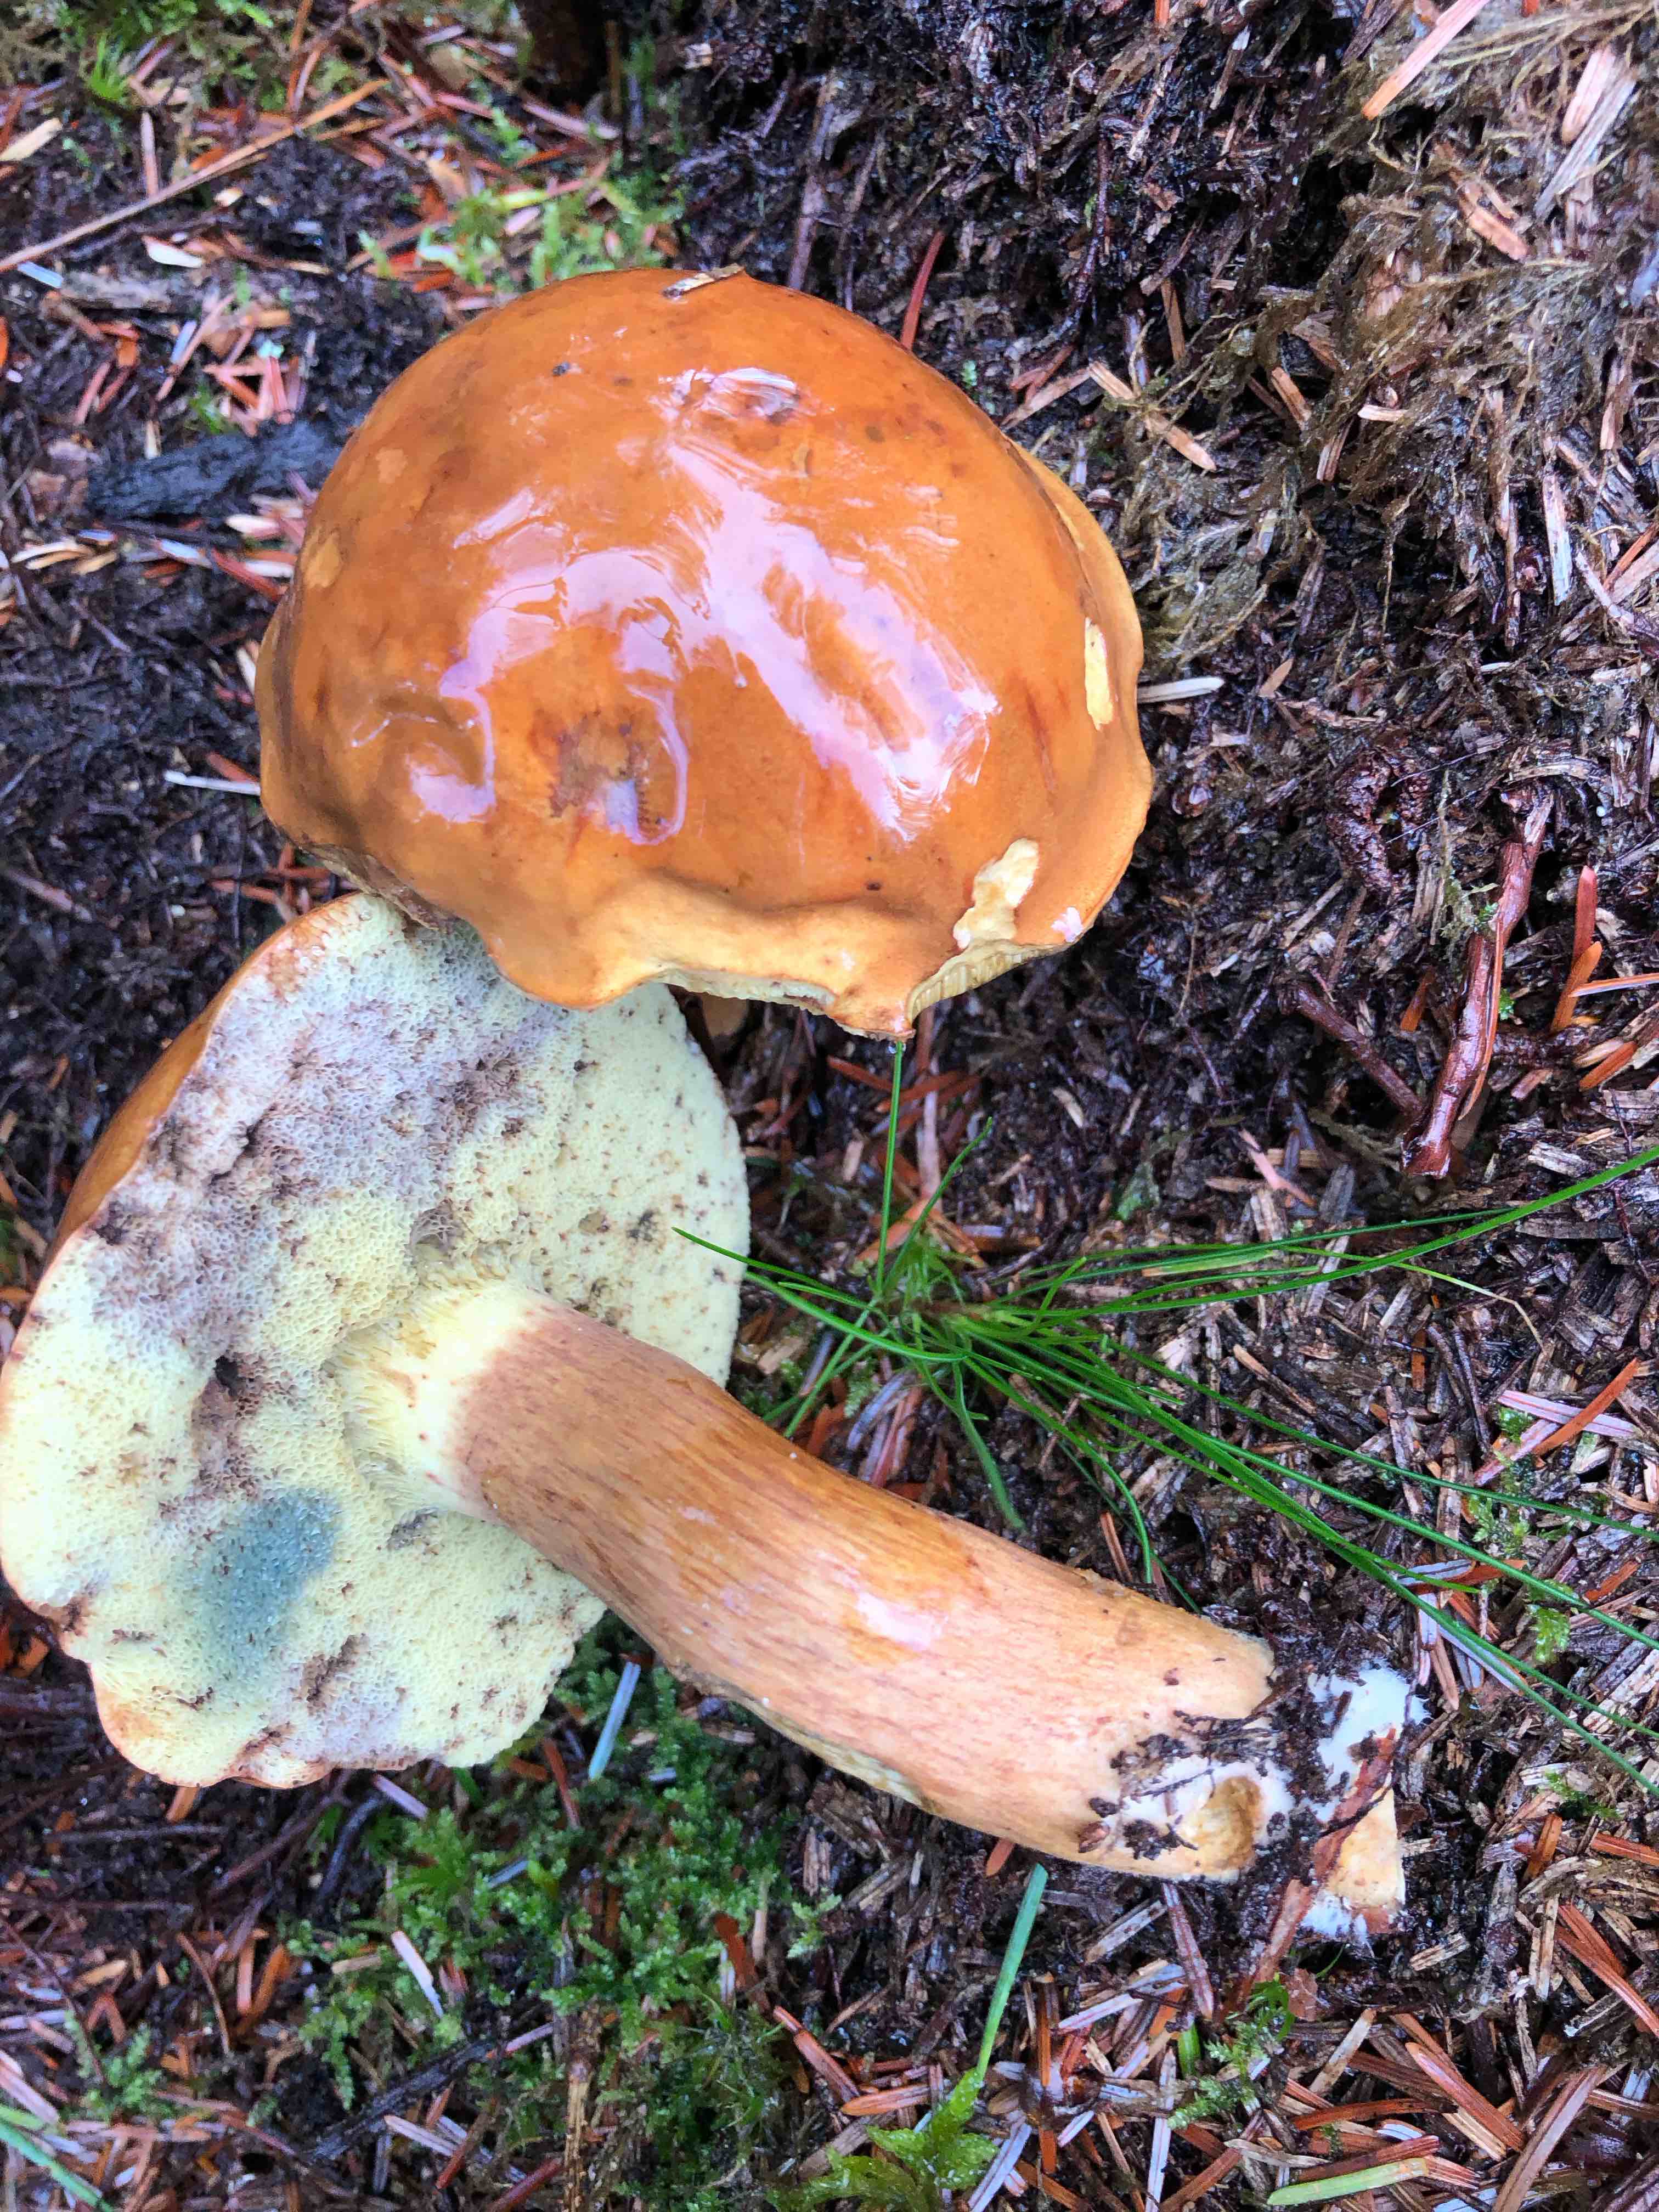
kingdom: Fungi
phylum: Basidiomycota
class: Agaricomycetes
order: Boletales
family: Boletaceae
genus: Imleria
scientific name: Imleria badia
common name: brunstokket rørhat
